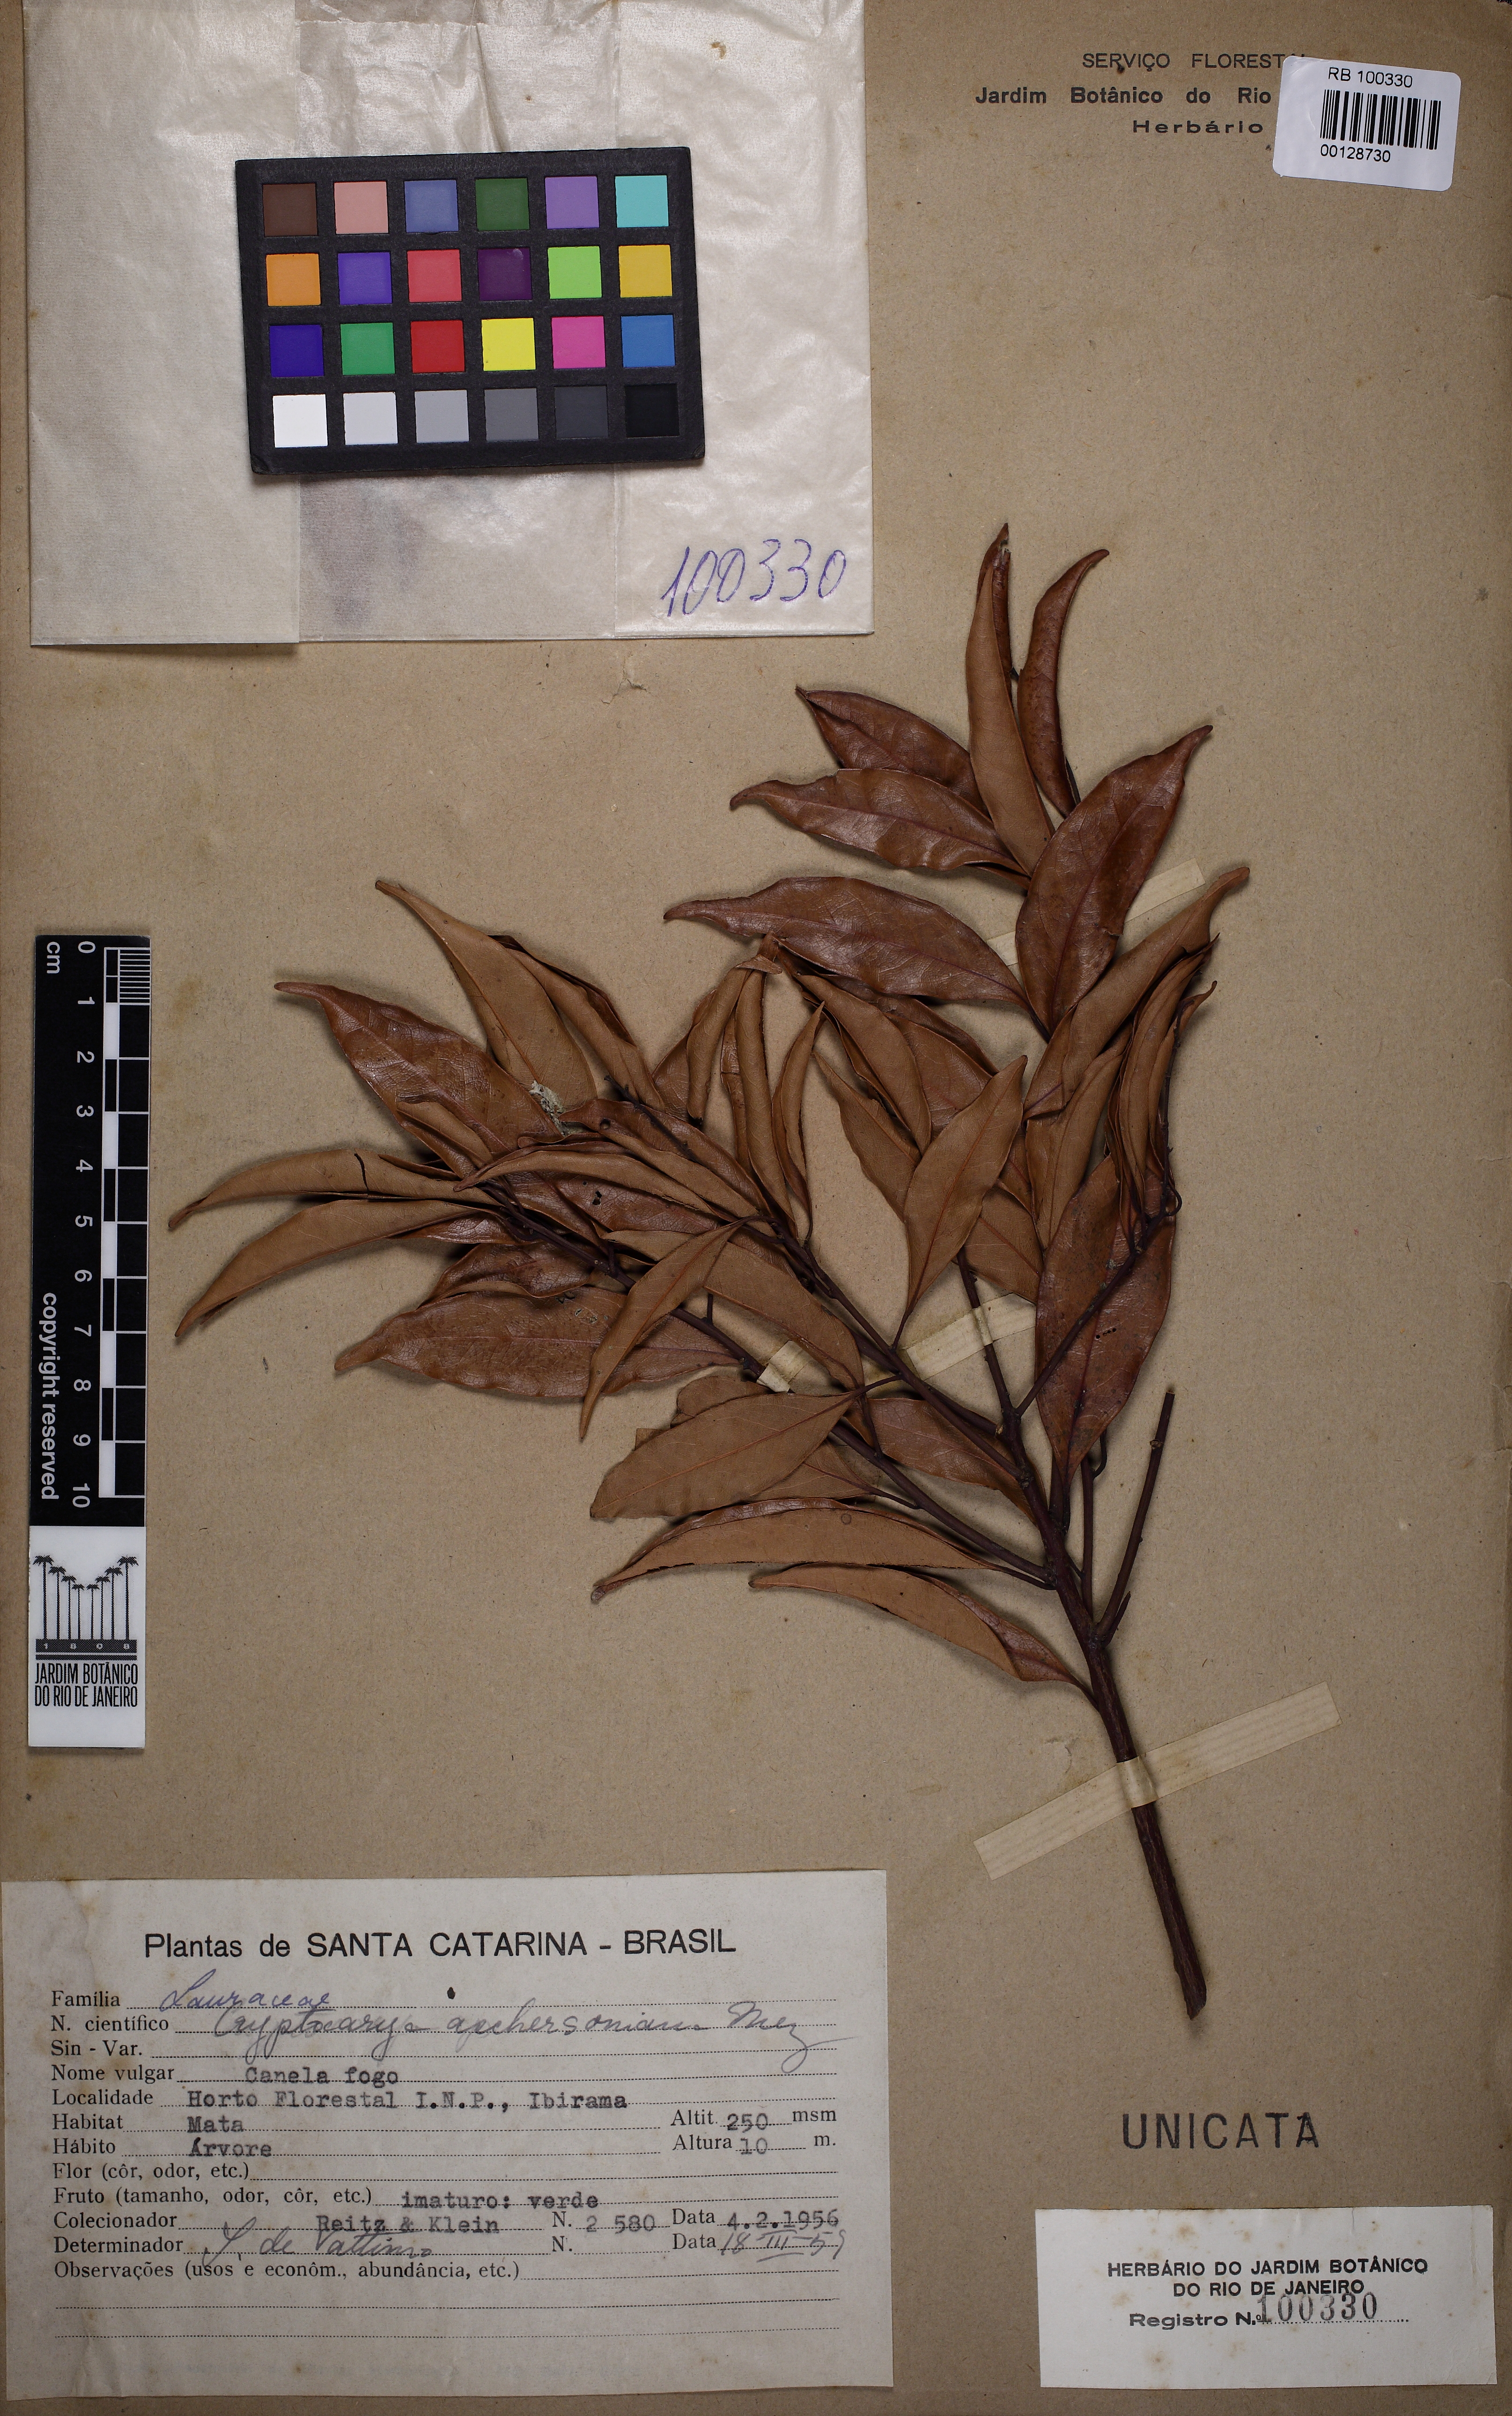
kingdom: Plantae
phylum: Tracheophyta
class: Magnoliopsida
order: Laurales
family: Lauraceae
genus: Cryptocarya
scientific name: Cryptocarya aschersoniana
